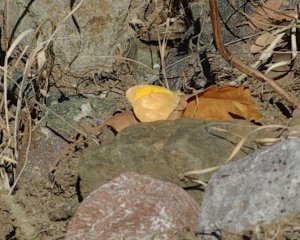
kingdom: Animalia
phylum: Arthropoda
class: Insecta
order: Lepidoptera
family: Pieridae
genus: Abaeis
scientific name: Abaeis nicippe
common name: Sleepy Orange
